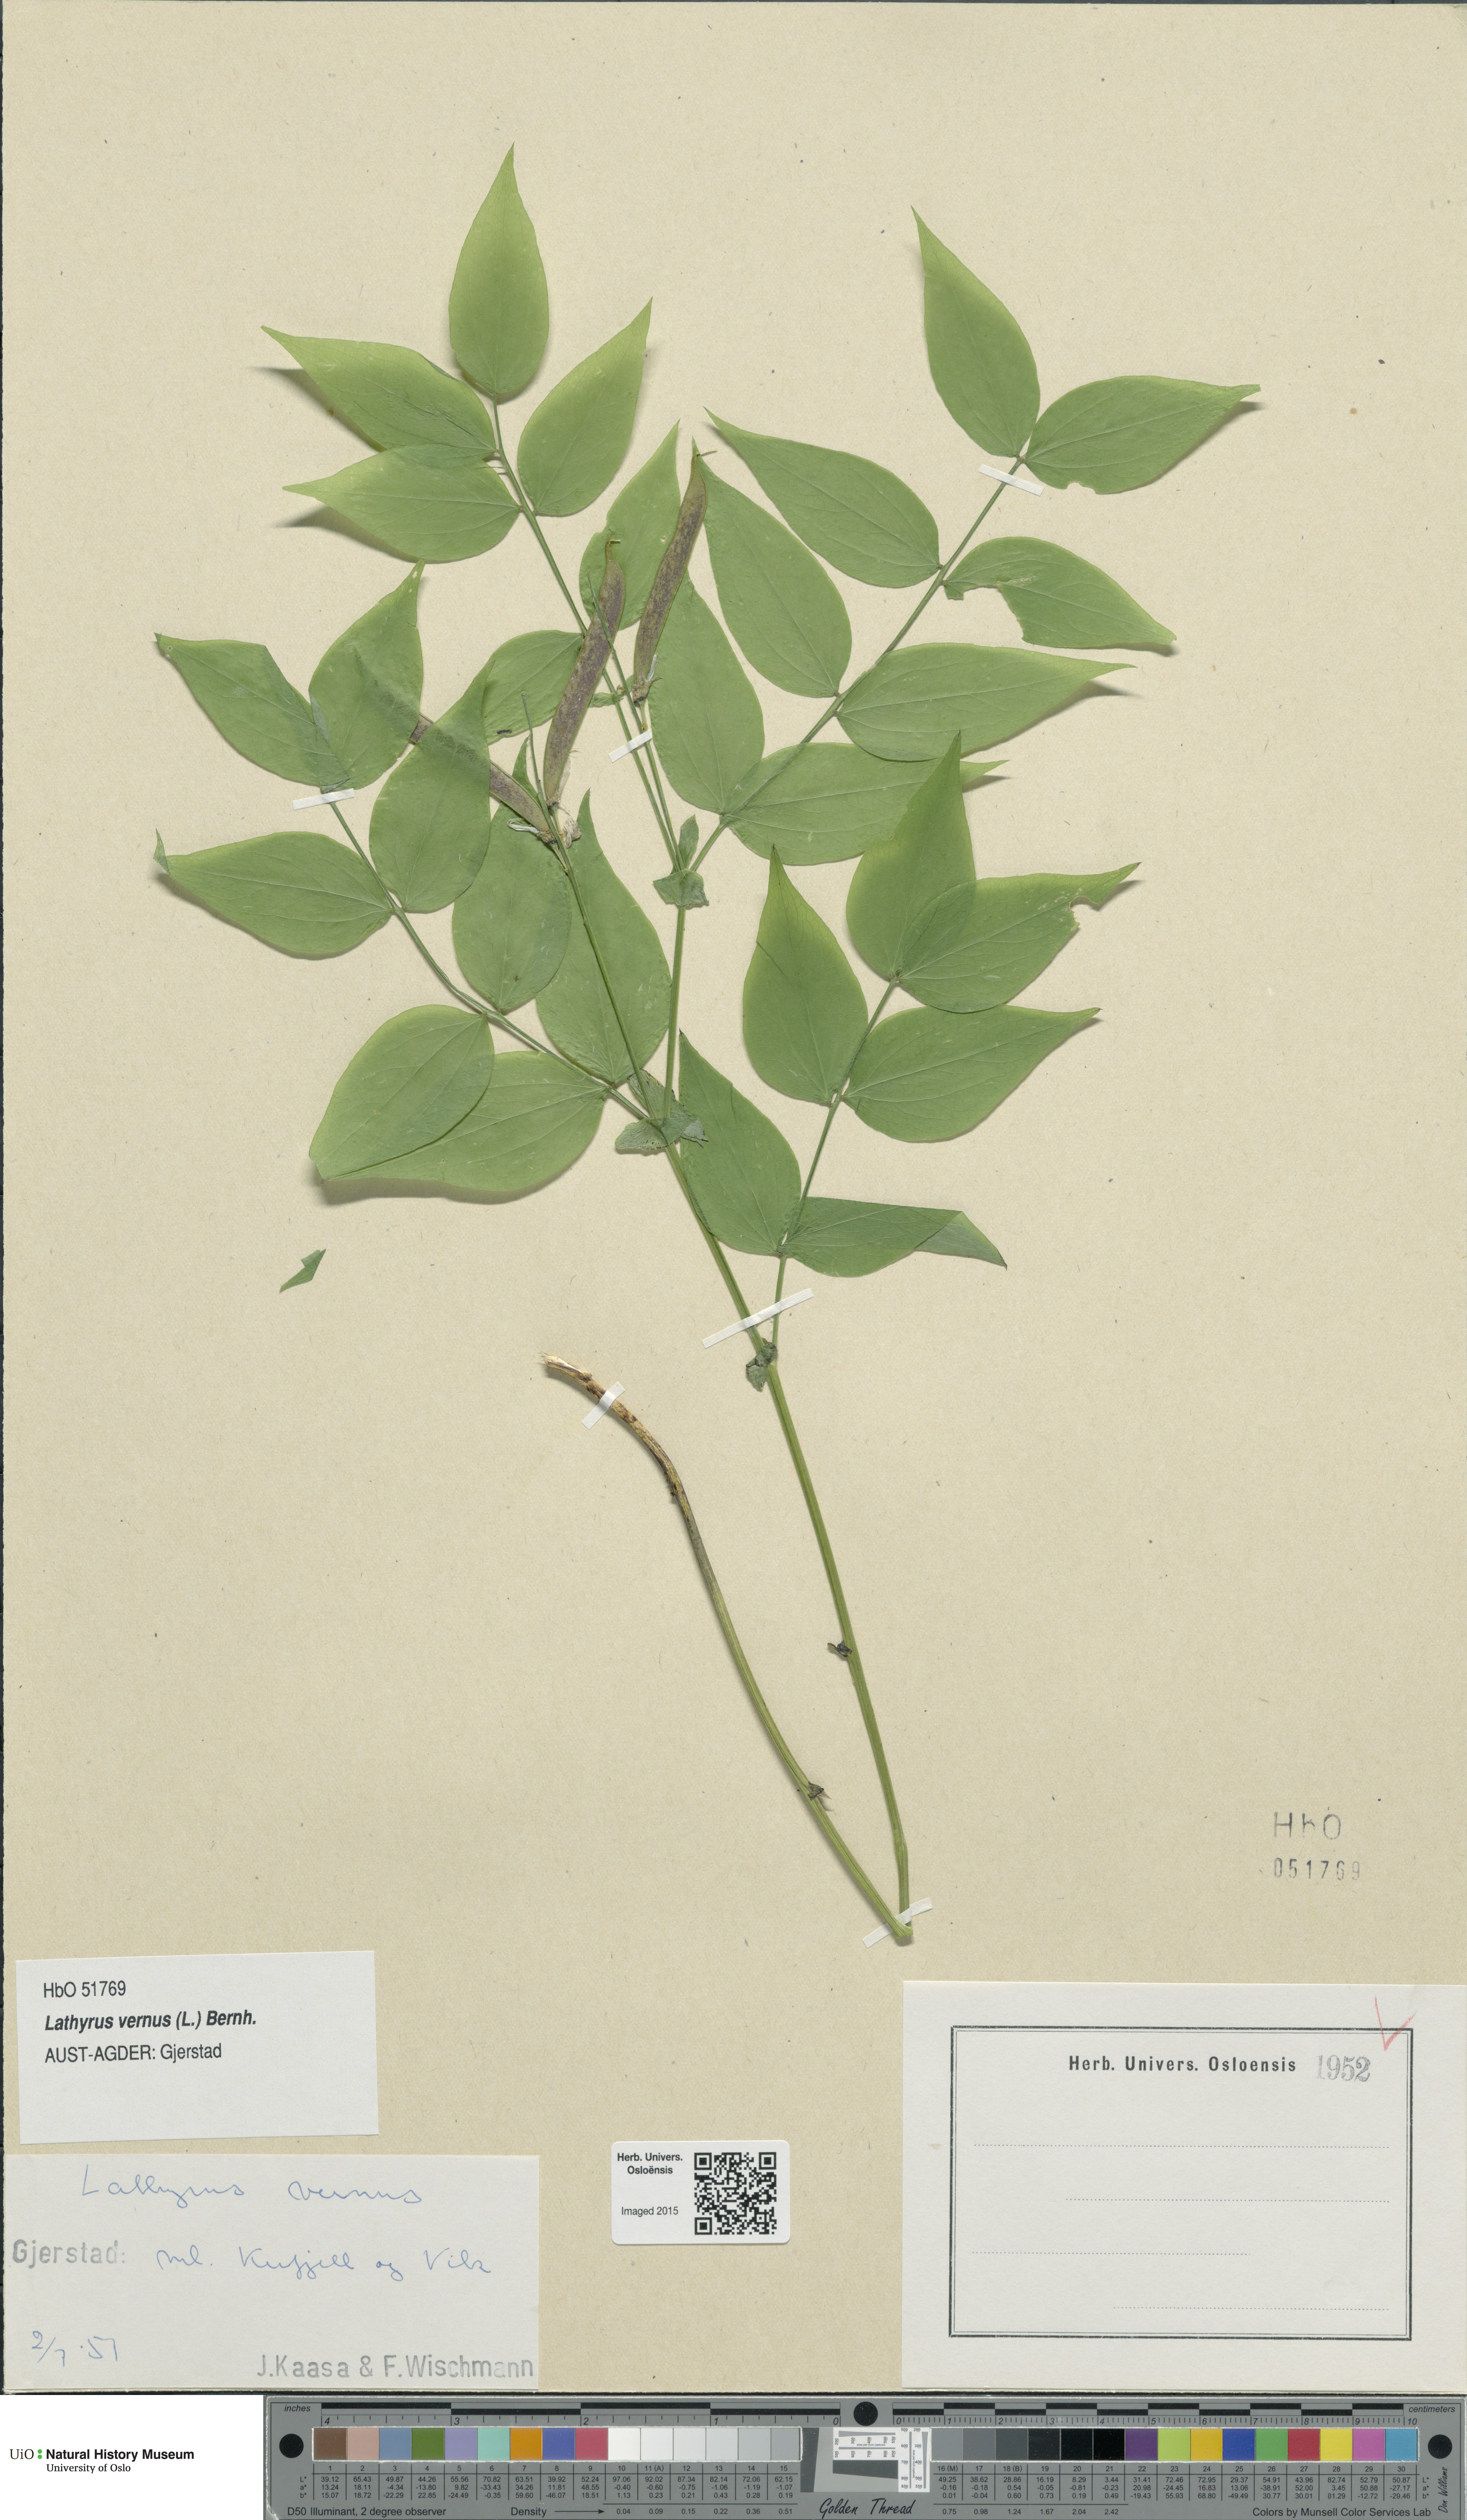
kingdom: Plantae
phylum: Tracheophyta
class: Magnoliopsida
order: Fabales
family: Fabaceae
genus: Lathyrus
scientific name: Lathyrus vernus
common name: Spring pea
